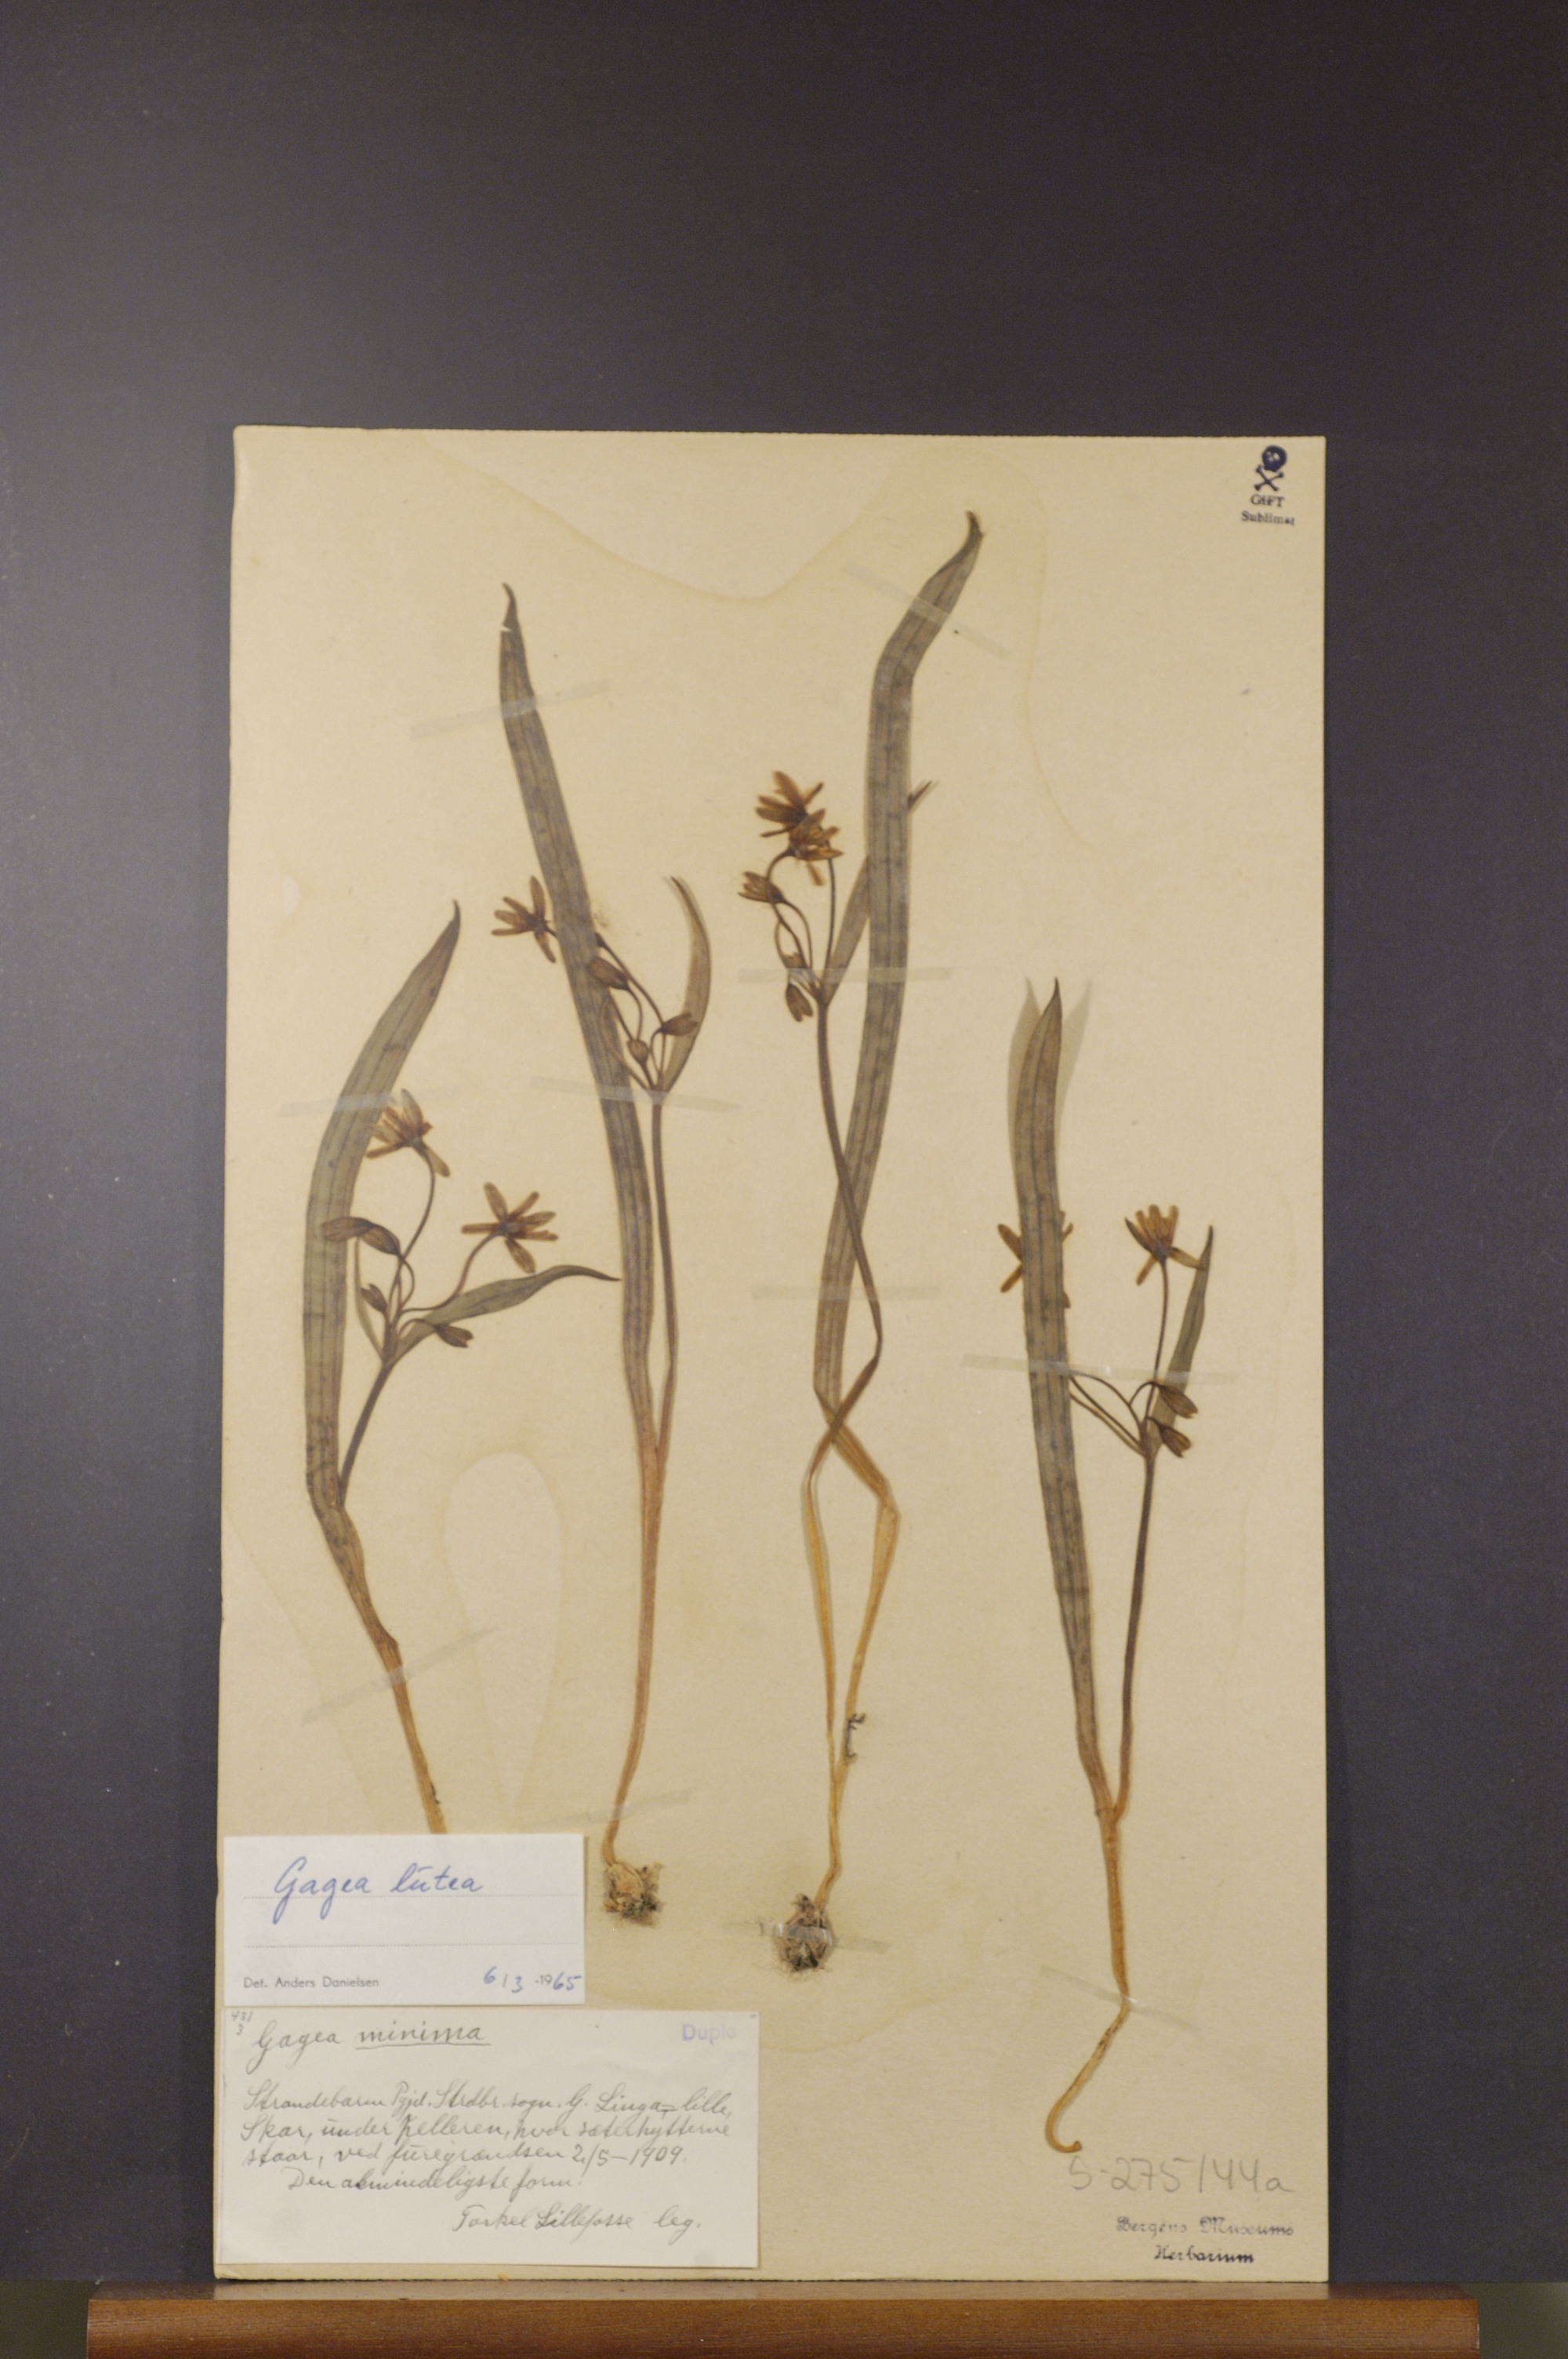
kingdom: Plantae
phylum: Tracheophyta
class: Liliopsida
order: Liliales
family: Liliaceae
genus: Gagea
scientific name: Gagea lutea
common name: Yellow star-of-bethlehem
